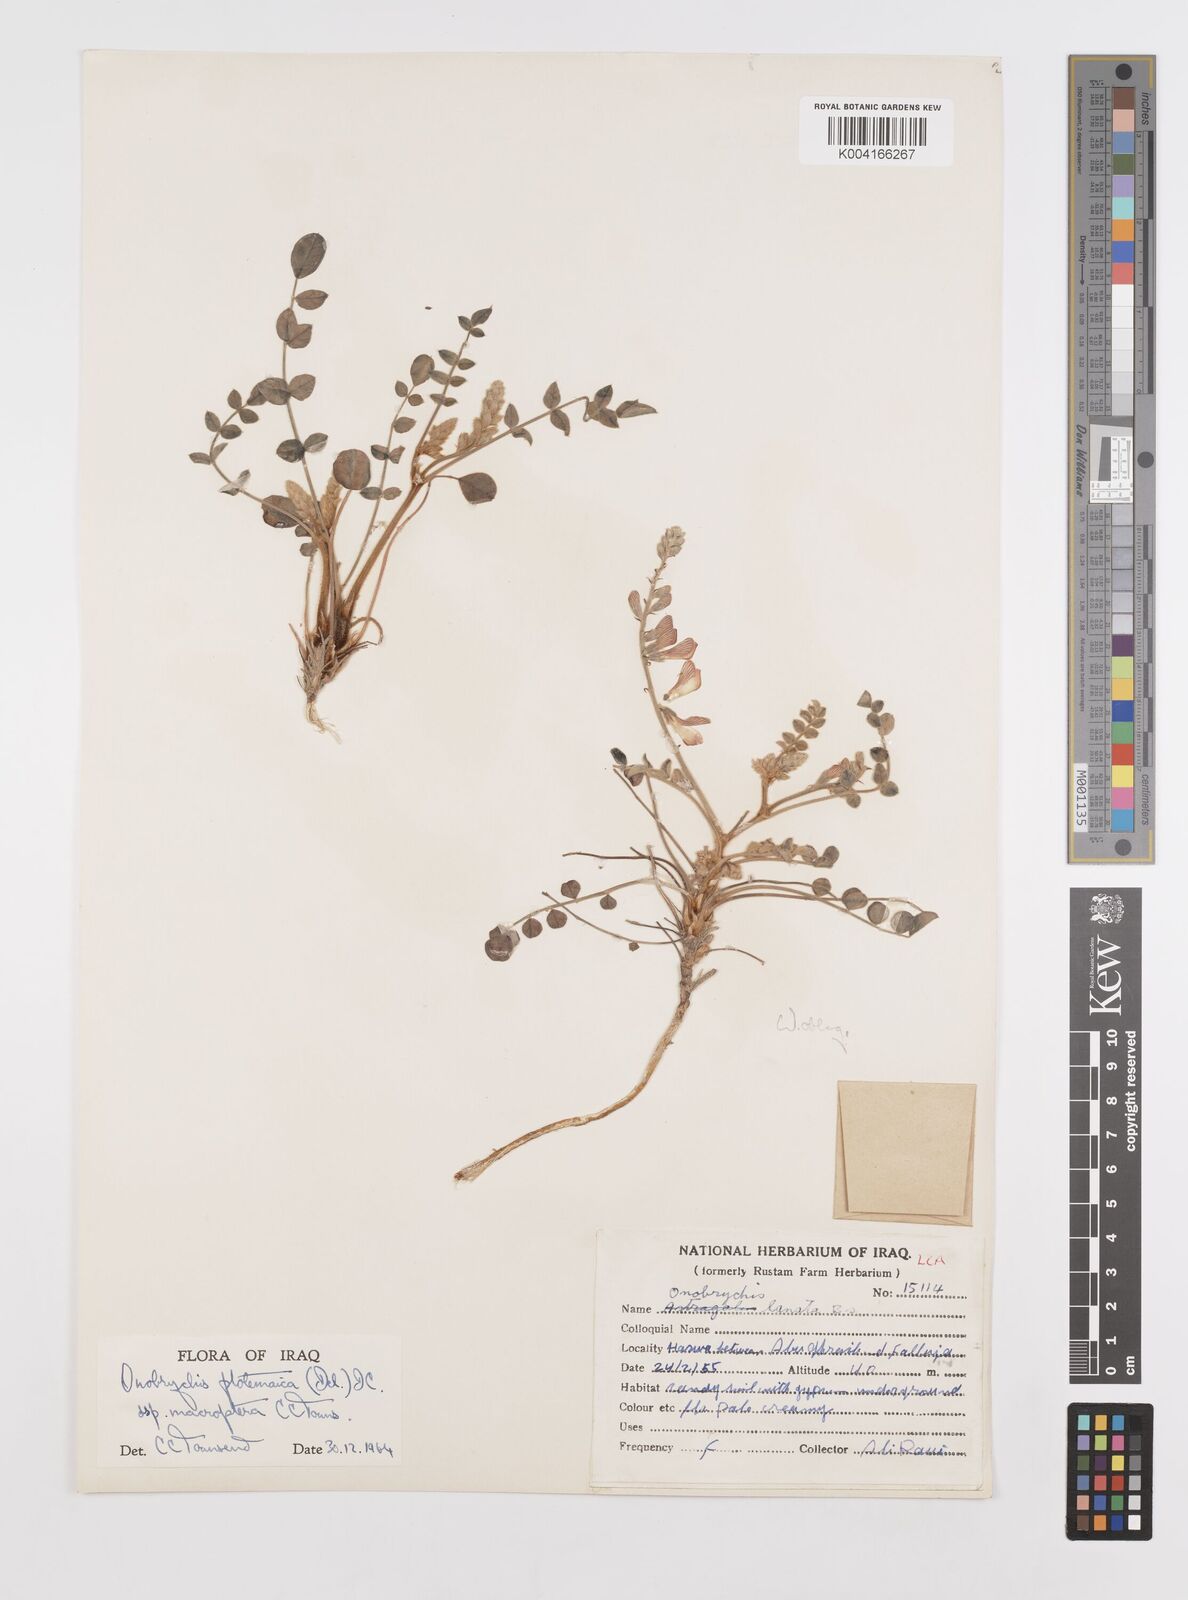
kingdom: Plantae
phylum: Tracheophyta
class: Magnoliopsida
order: Fabales
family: Fabaceae
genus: Onobrychis
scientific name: Onobrychis ptolemaica
